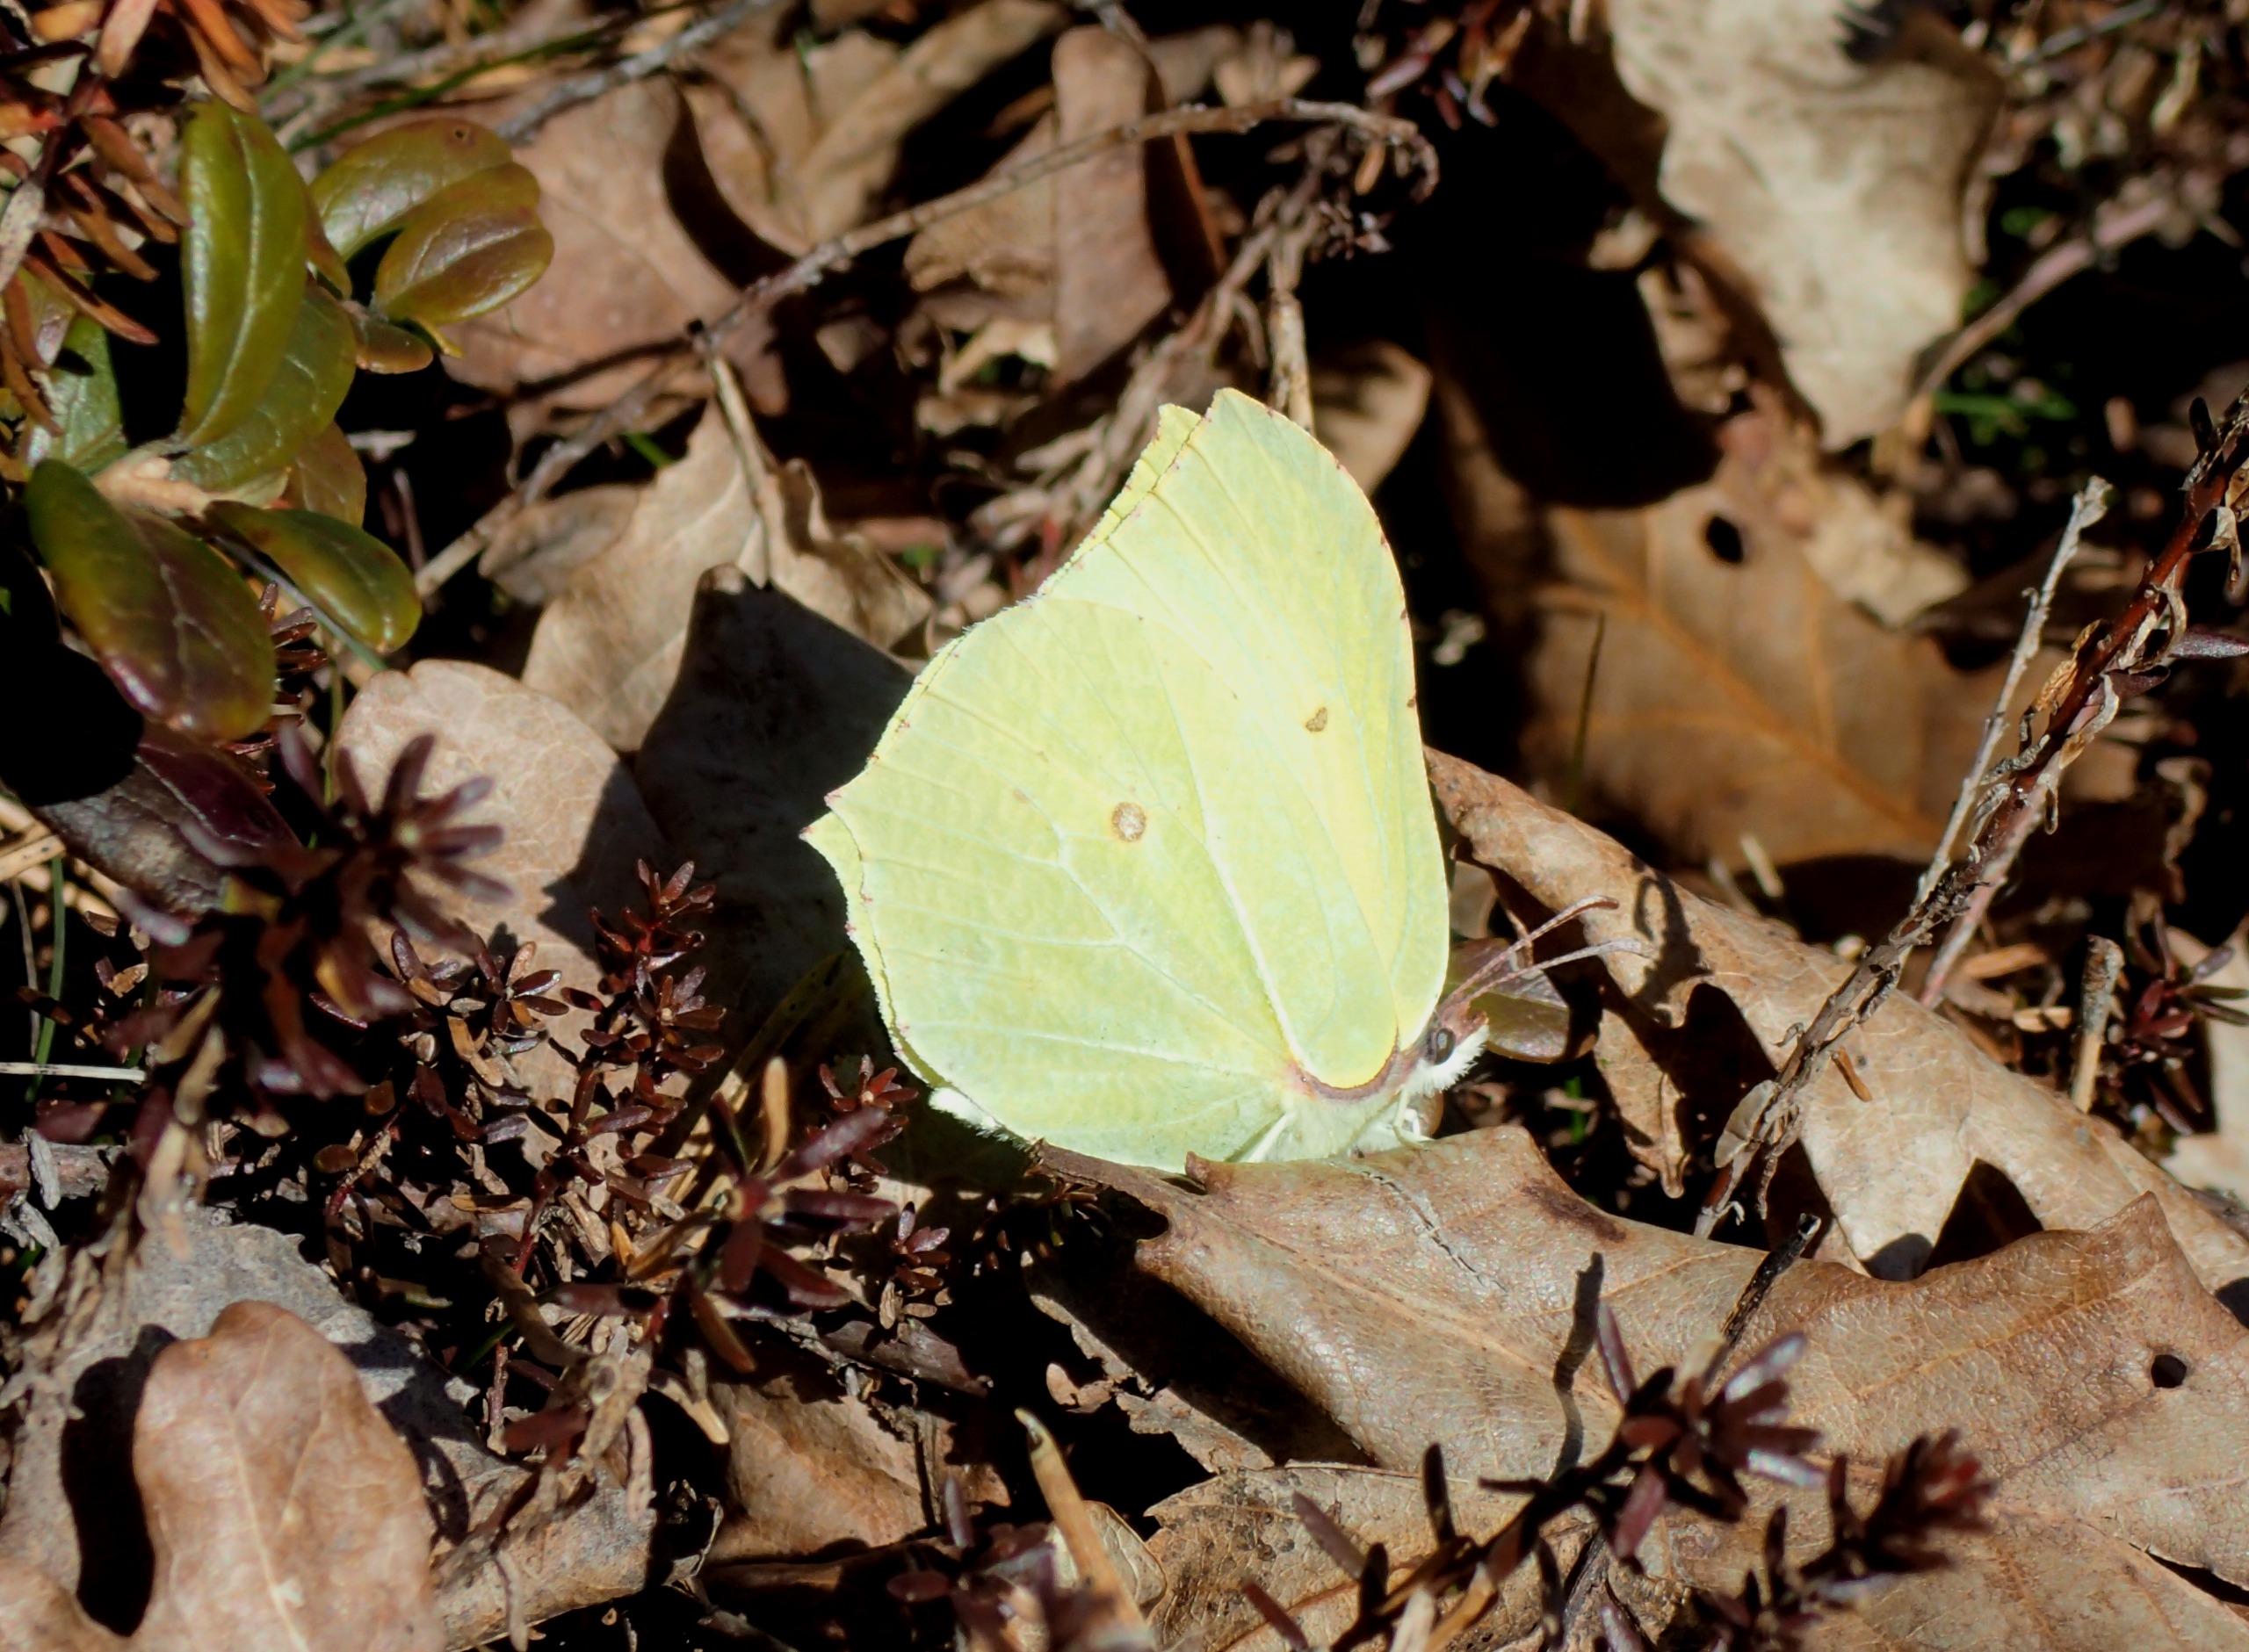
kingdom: Animalia
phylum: Arthropoda
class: Insecta
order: Lepidoptera
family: Pieridae
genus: Gonepteryx
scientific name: Gonepteryx rhamni
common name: Citronsommerfugl
